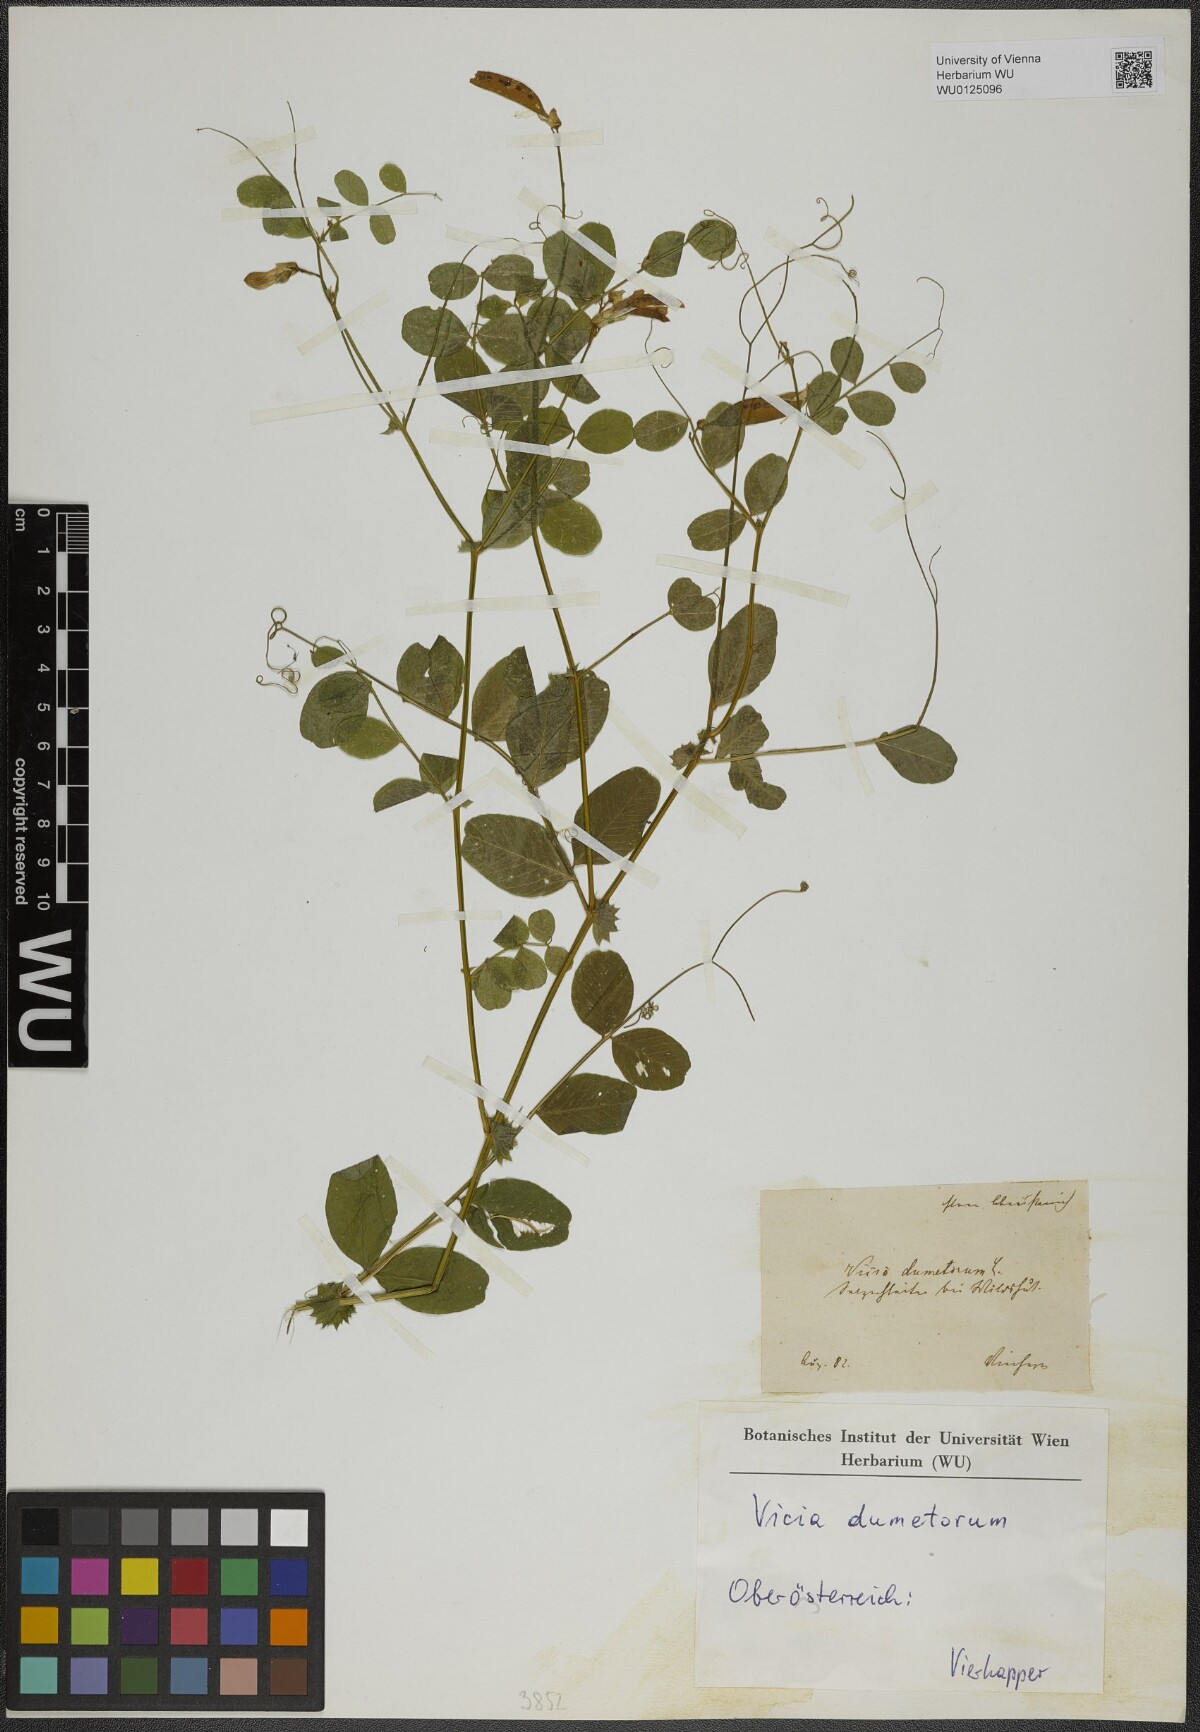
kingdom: Plantae
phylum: Tracheophyta
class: Magnoliopsida
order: Fabales
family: Fabaceae
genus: Vicia
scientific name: Vicia dumetorum
